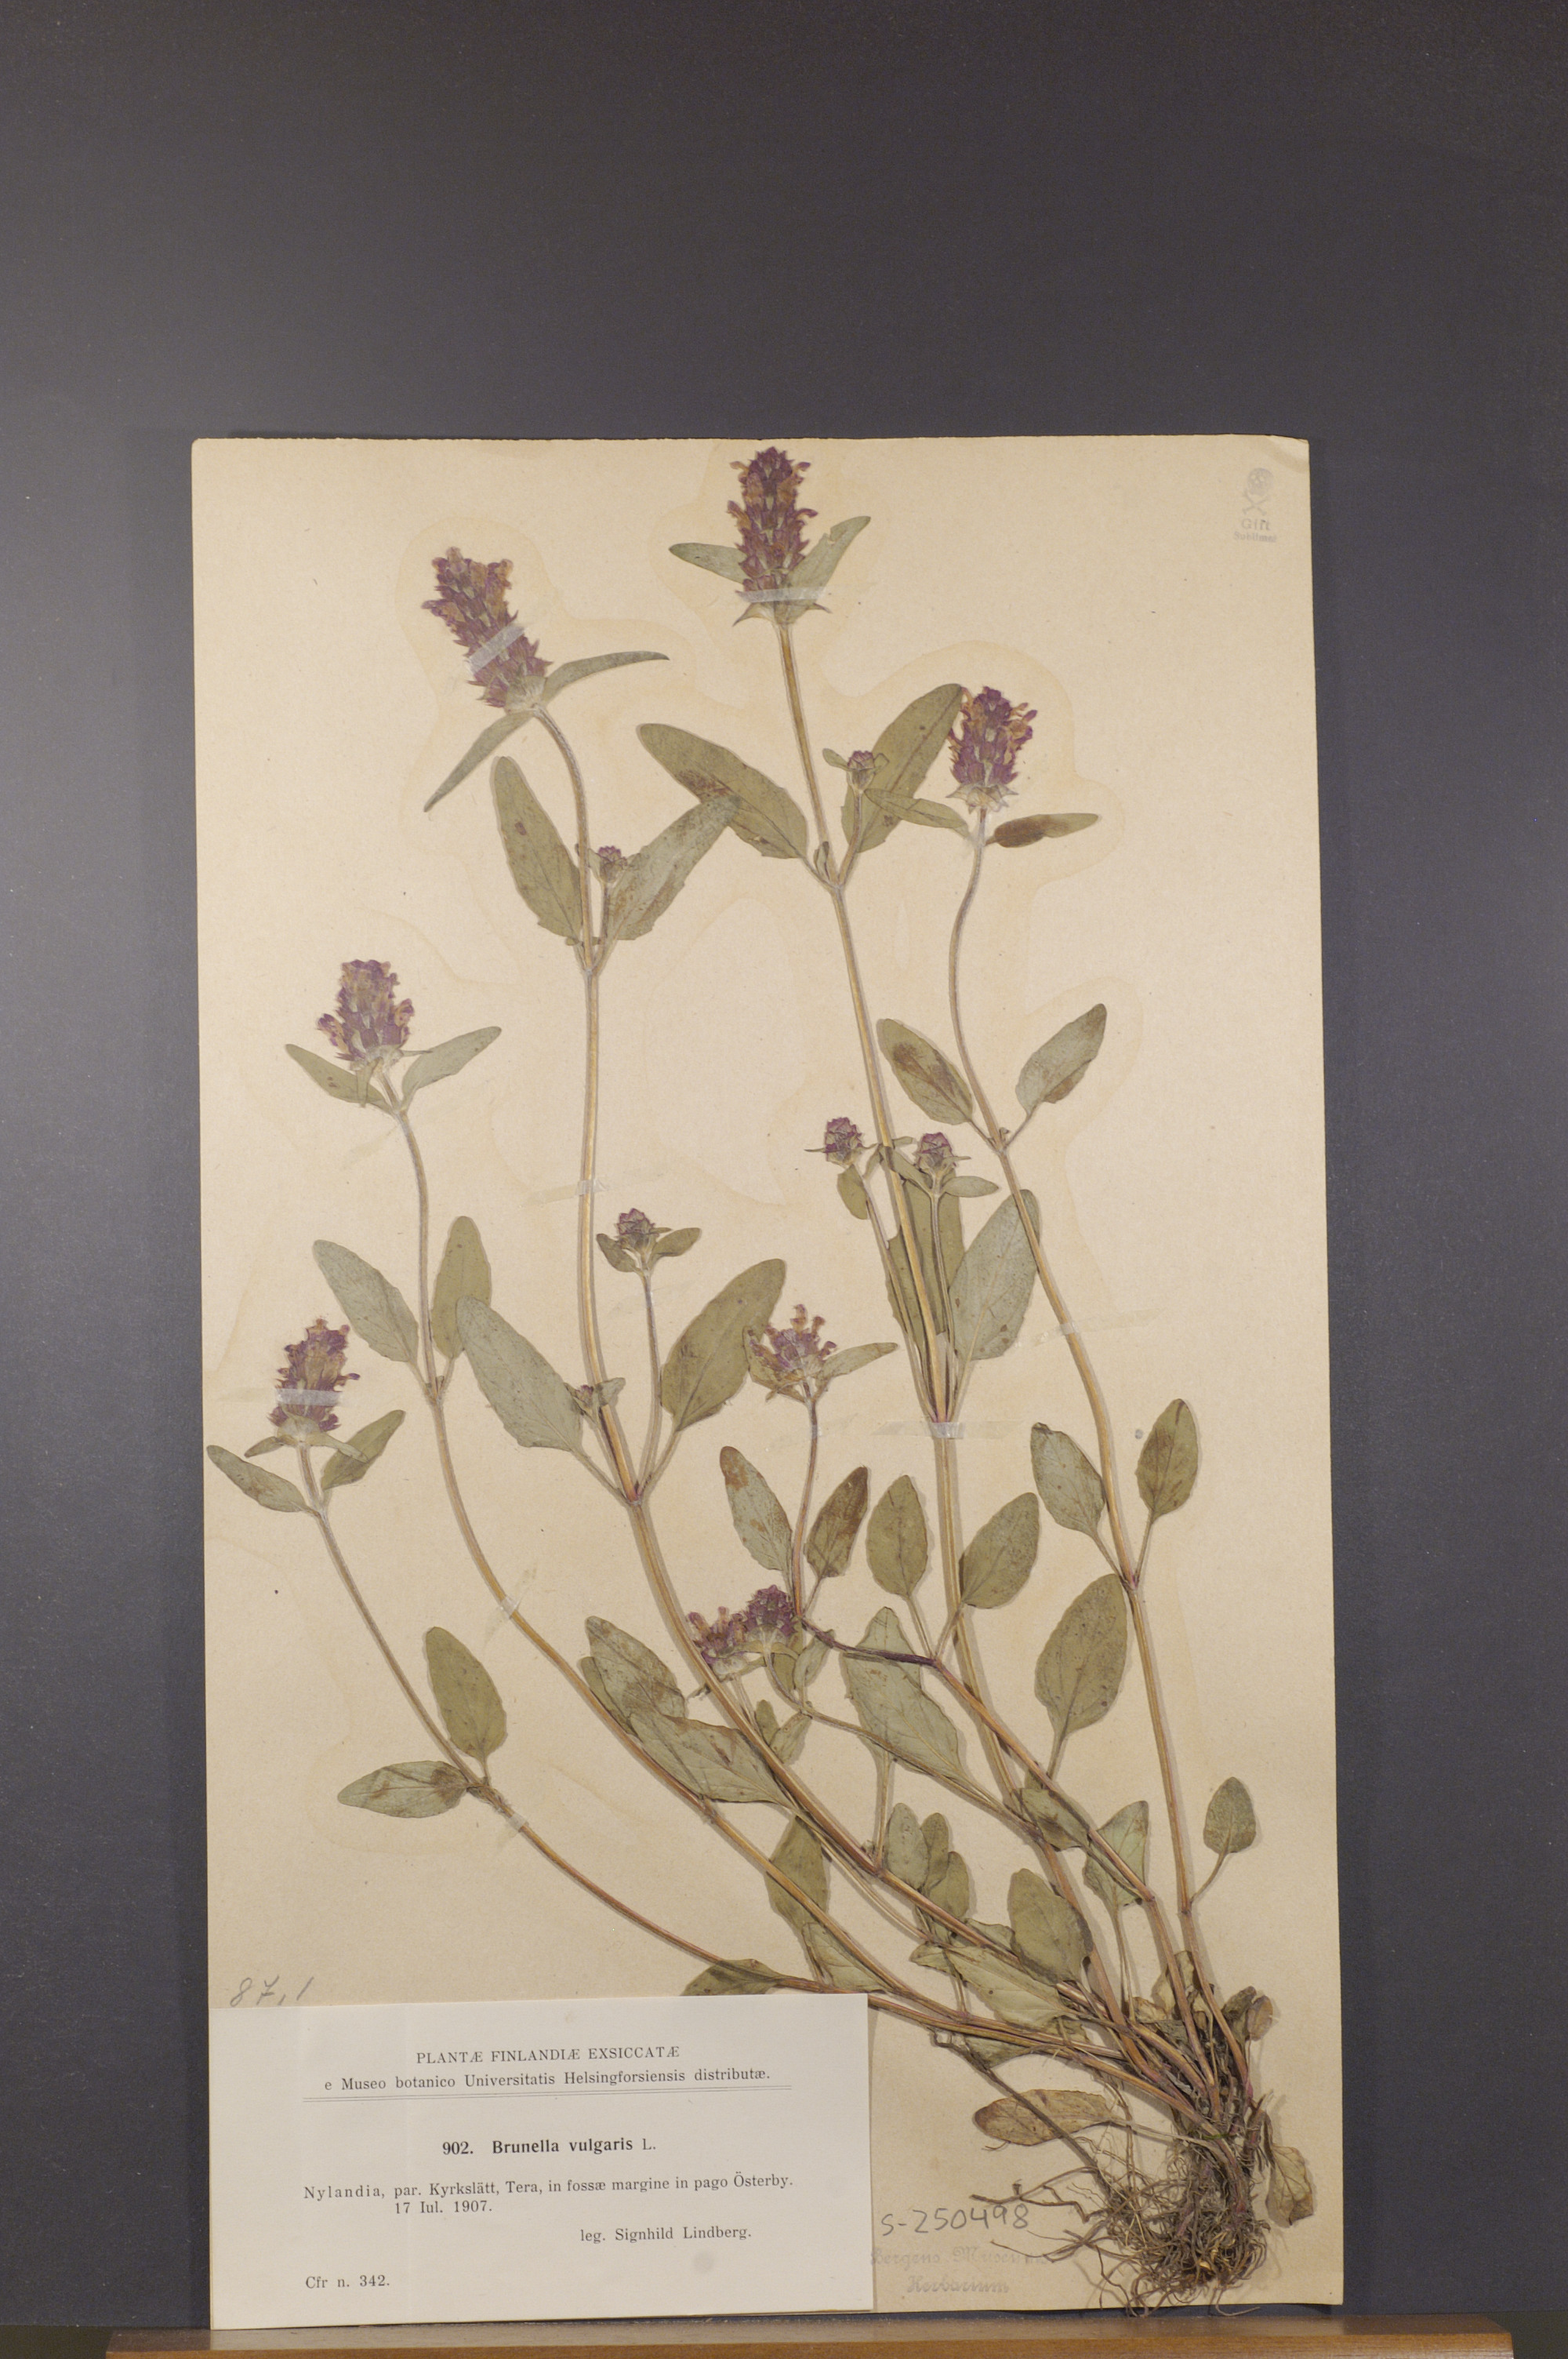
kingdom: Plantae
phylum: Tracheophyta
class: Magnoliopsida
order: Lamiales
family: Lamiaceae
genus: Prunella
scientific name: Prunella vulgaris
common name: Heal-all
